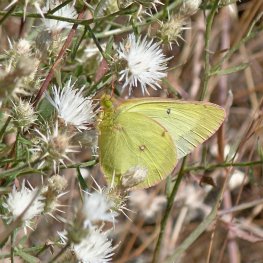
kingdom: Animalia
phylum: Arthropoda
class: Insecta
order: Lepidoptera
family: Pieridae
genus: Colias
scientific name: Colias philodice
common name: Clouded Sulphur
